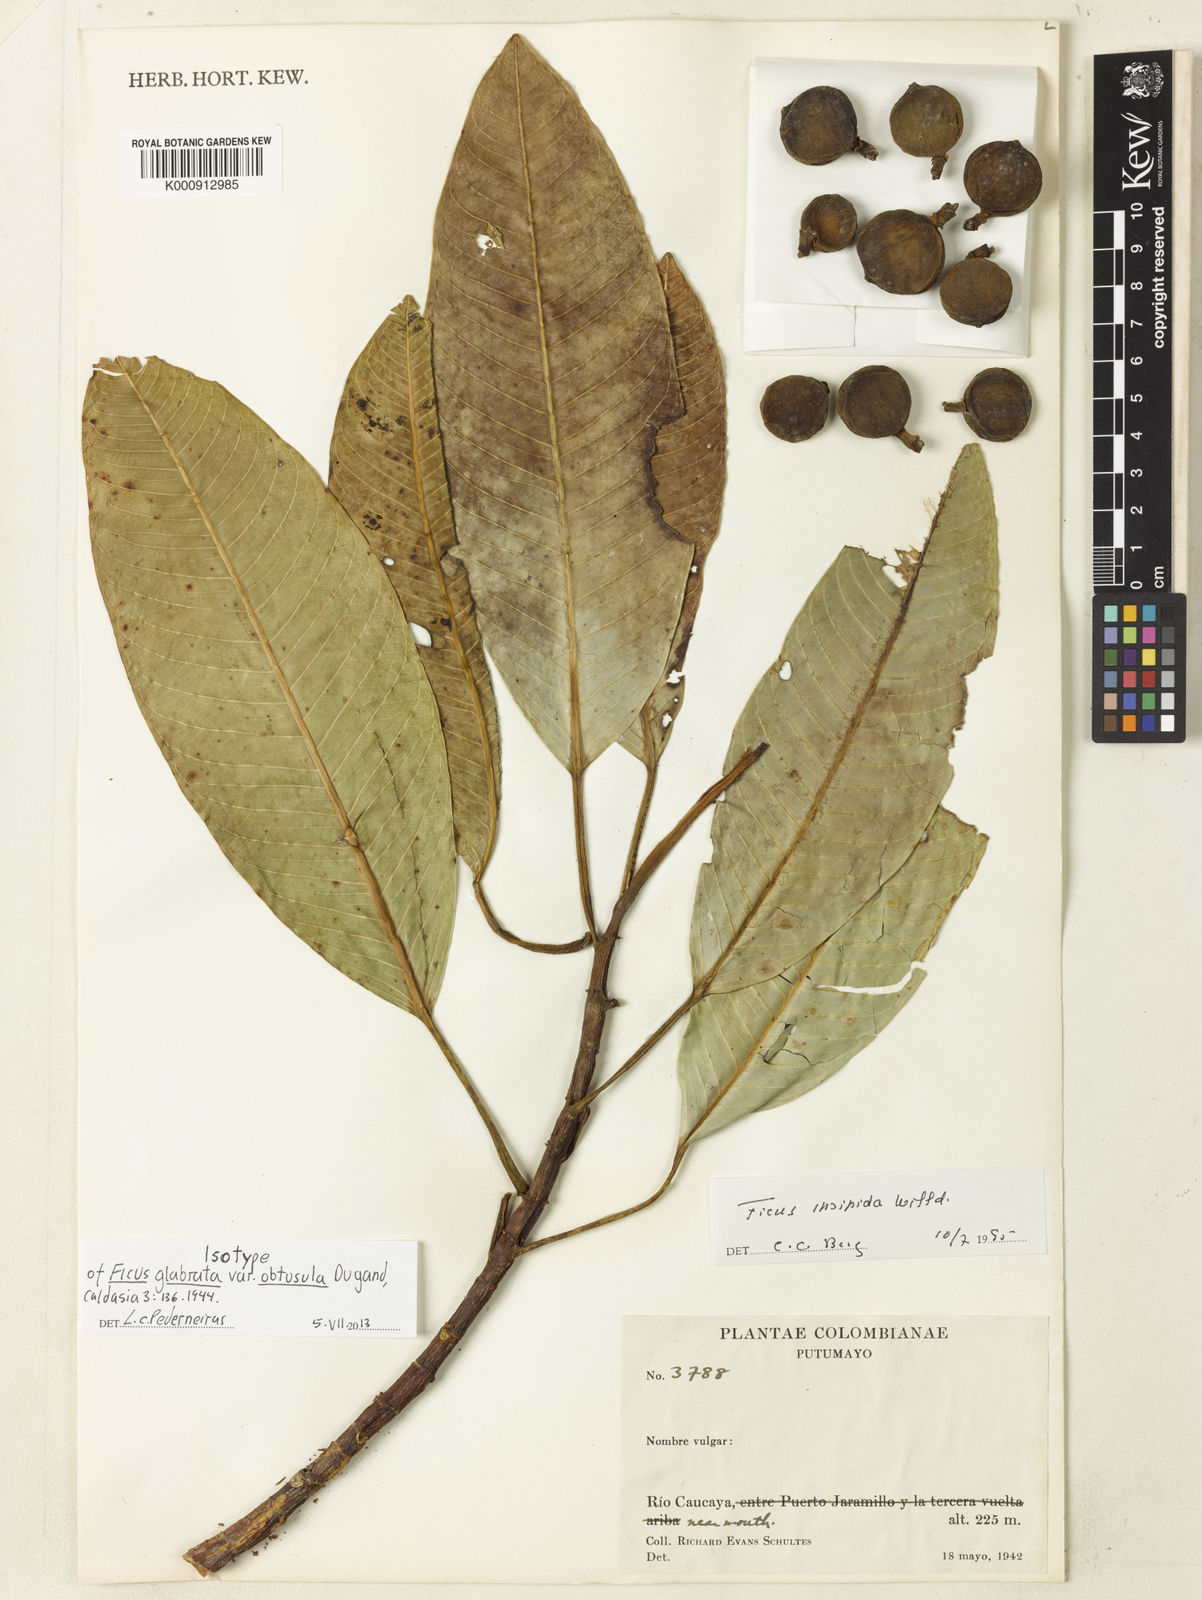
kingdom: Plantae
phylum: Tracheophyta
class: Magnoliopsida
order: Rosales
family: Moraceae
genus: Ficus
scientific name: Ficus insipida
